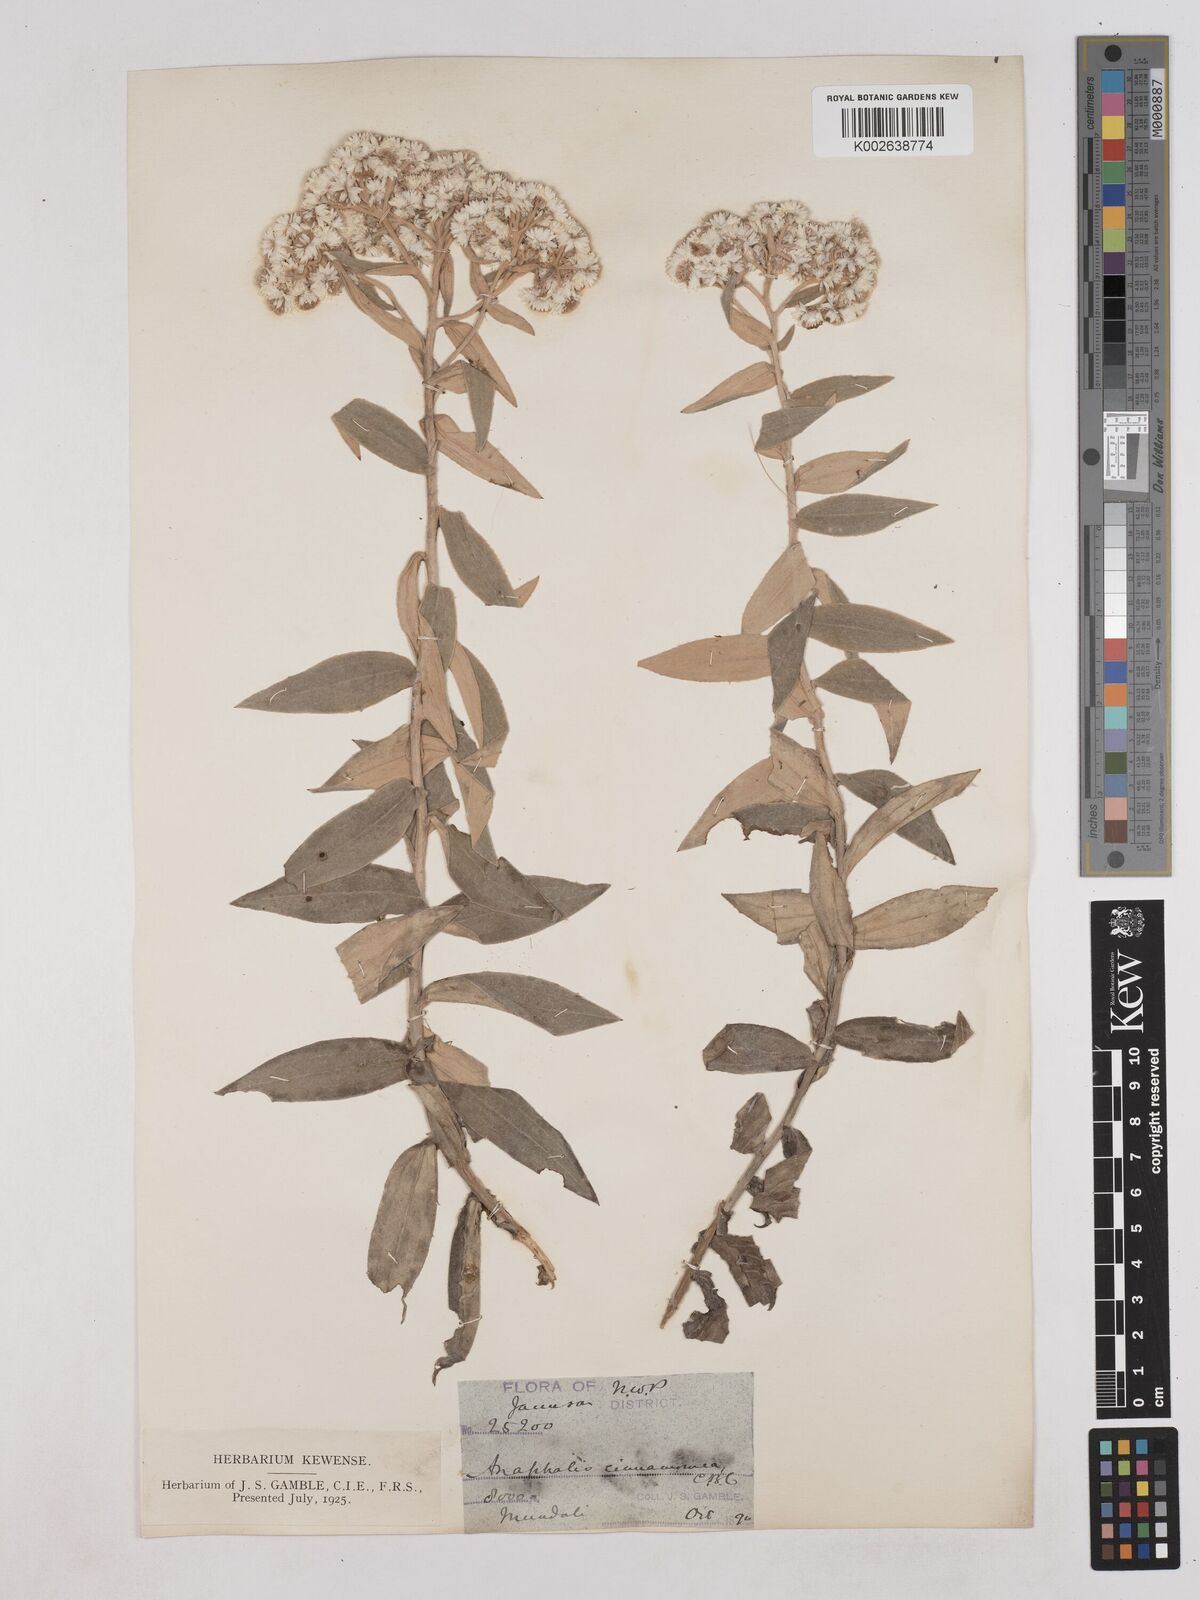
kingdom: Plantae
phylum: Tracheophyta
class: Magnoliopsida
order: Asterales
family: Asteraceae
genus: Anaphalis
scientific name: Anaphalis marcescens
